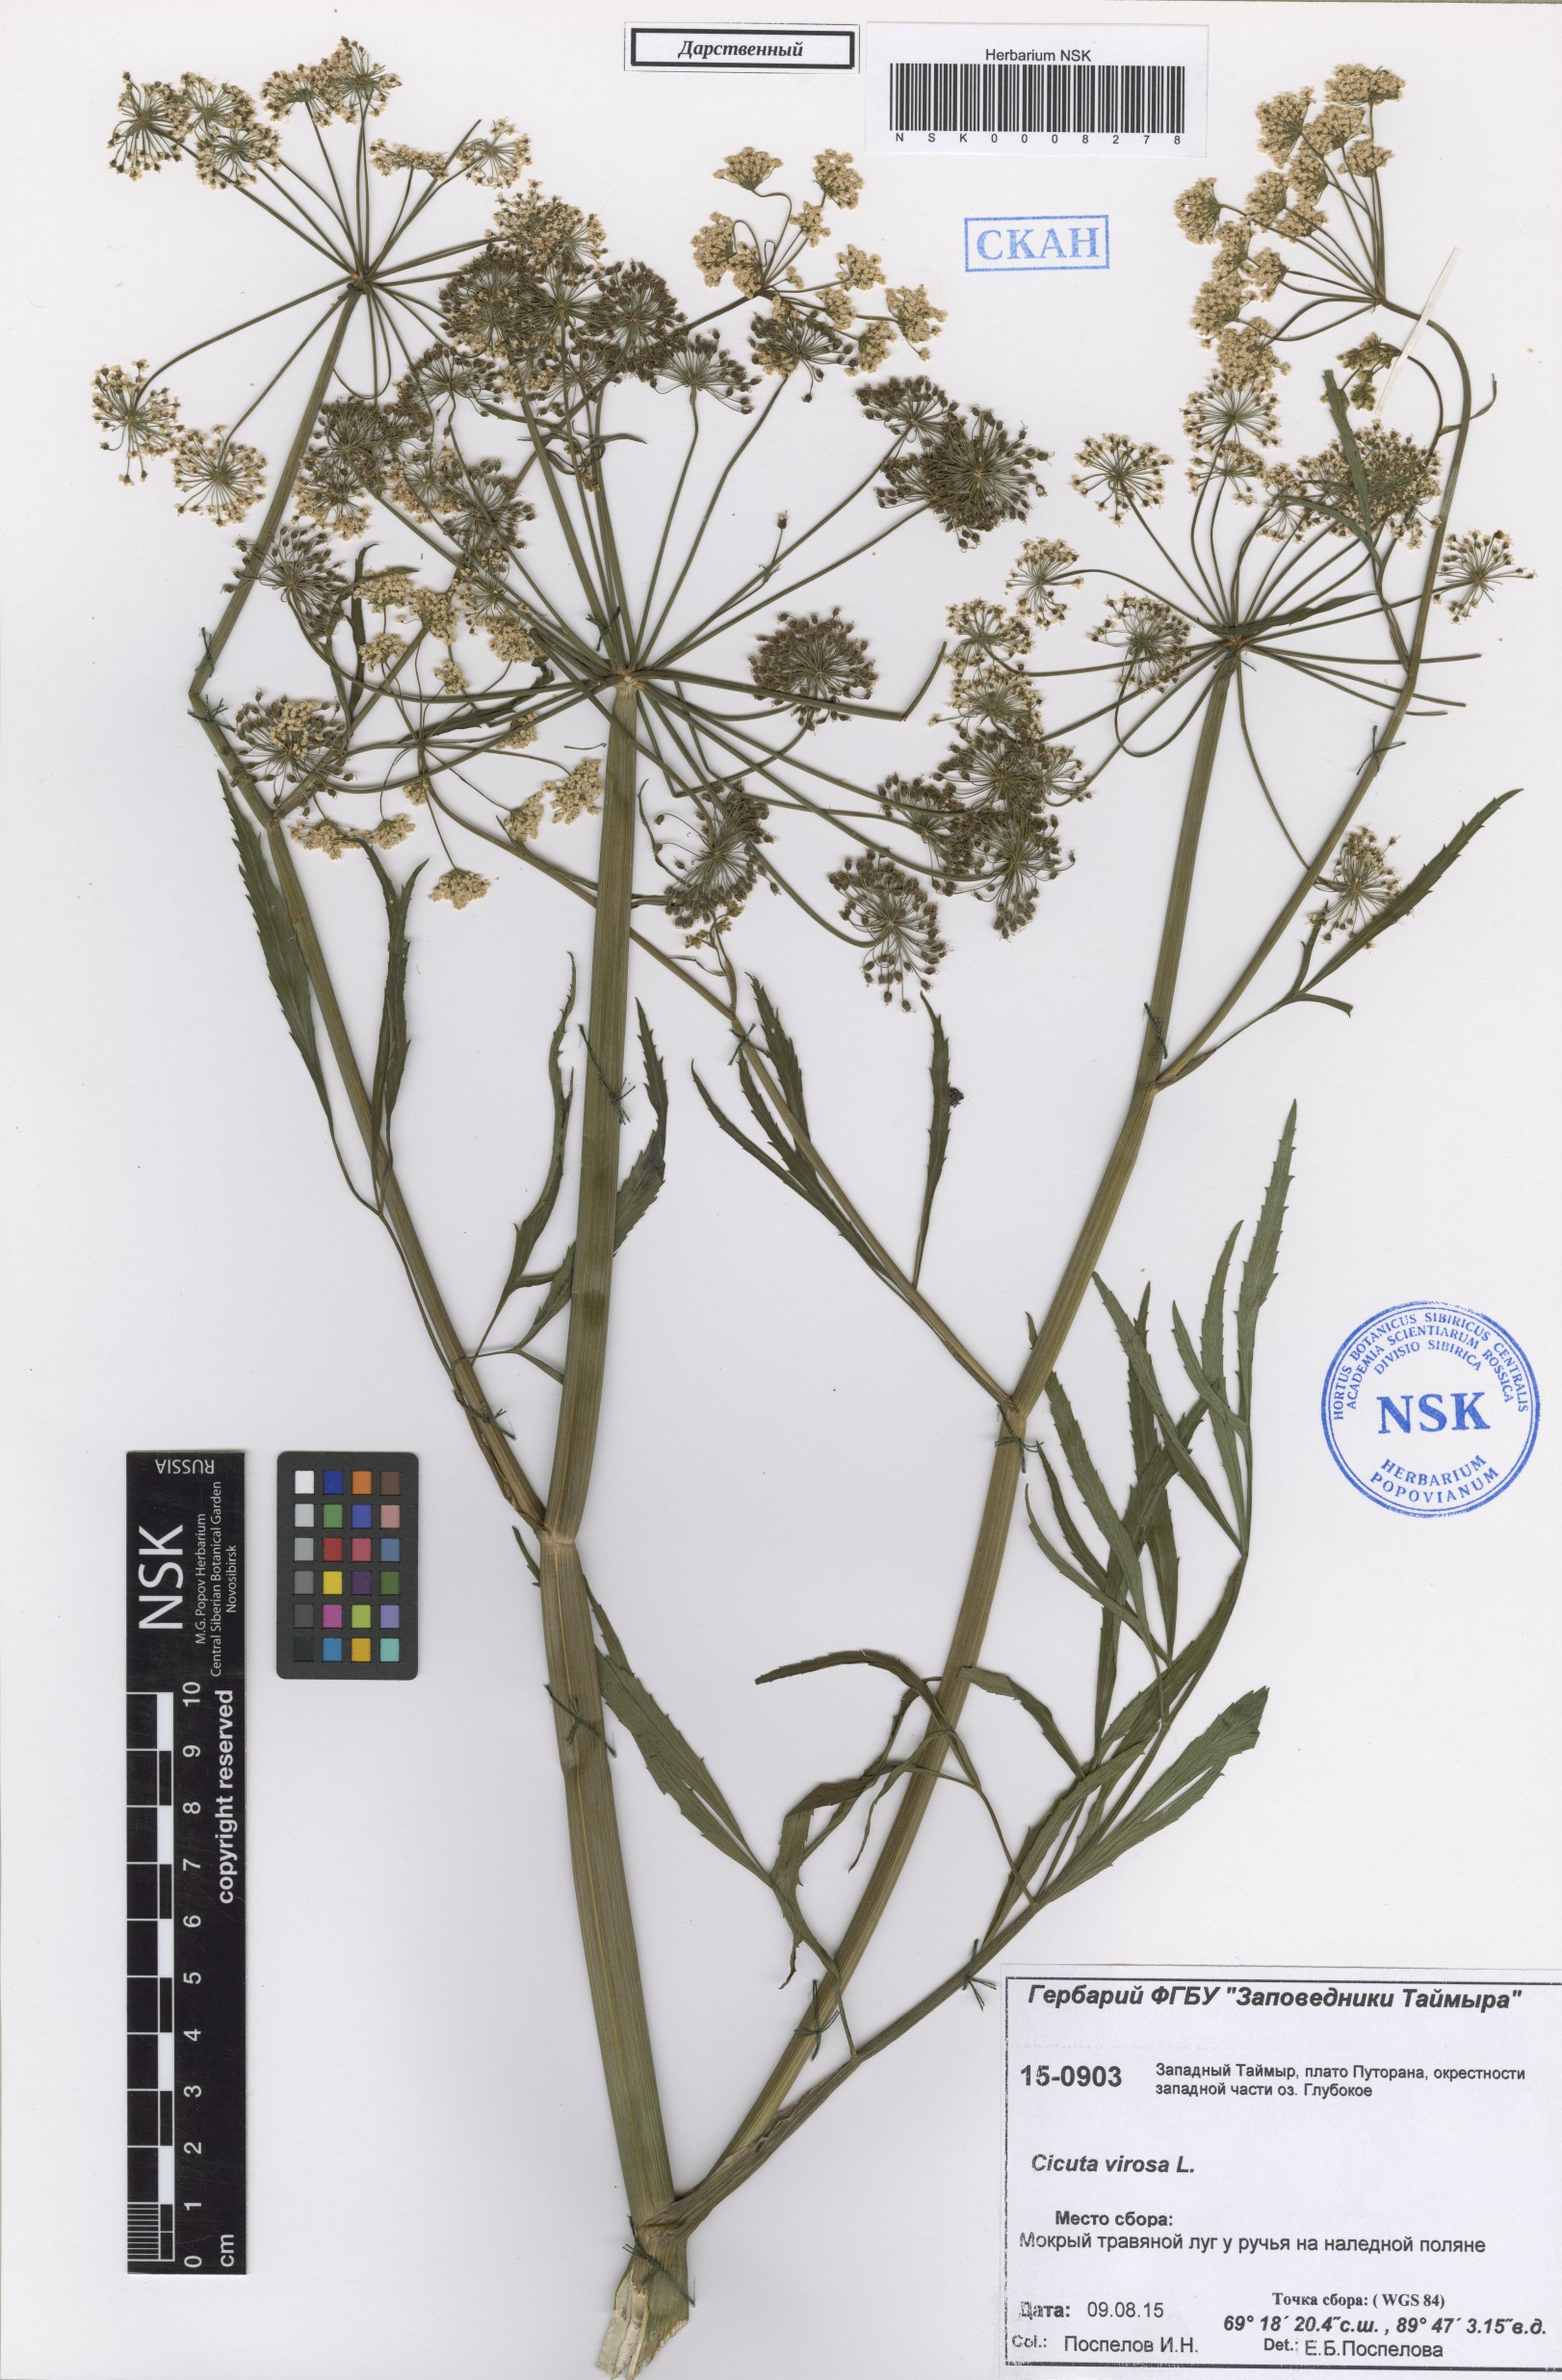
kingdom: Plantae
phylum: Tracheophyta
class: Magnoliopsida
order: Apiales
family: Apiaceae
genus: Cicuta
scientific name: Cicuta virosa
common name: Cowbane
